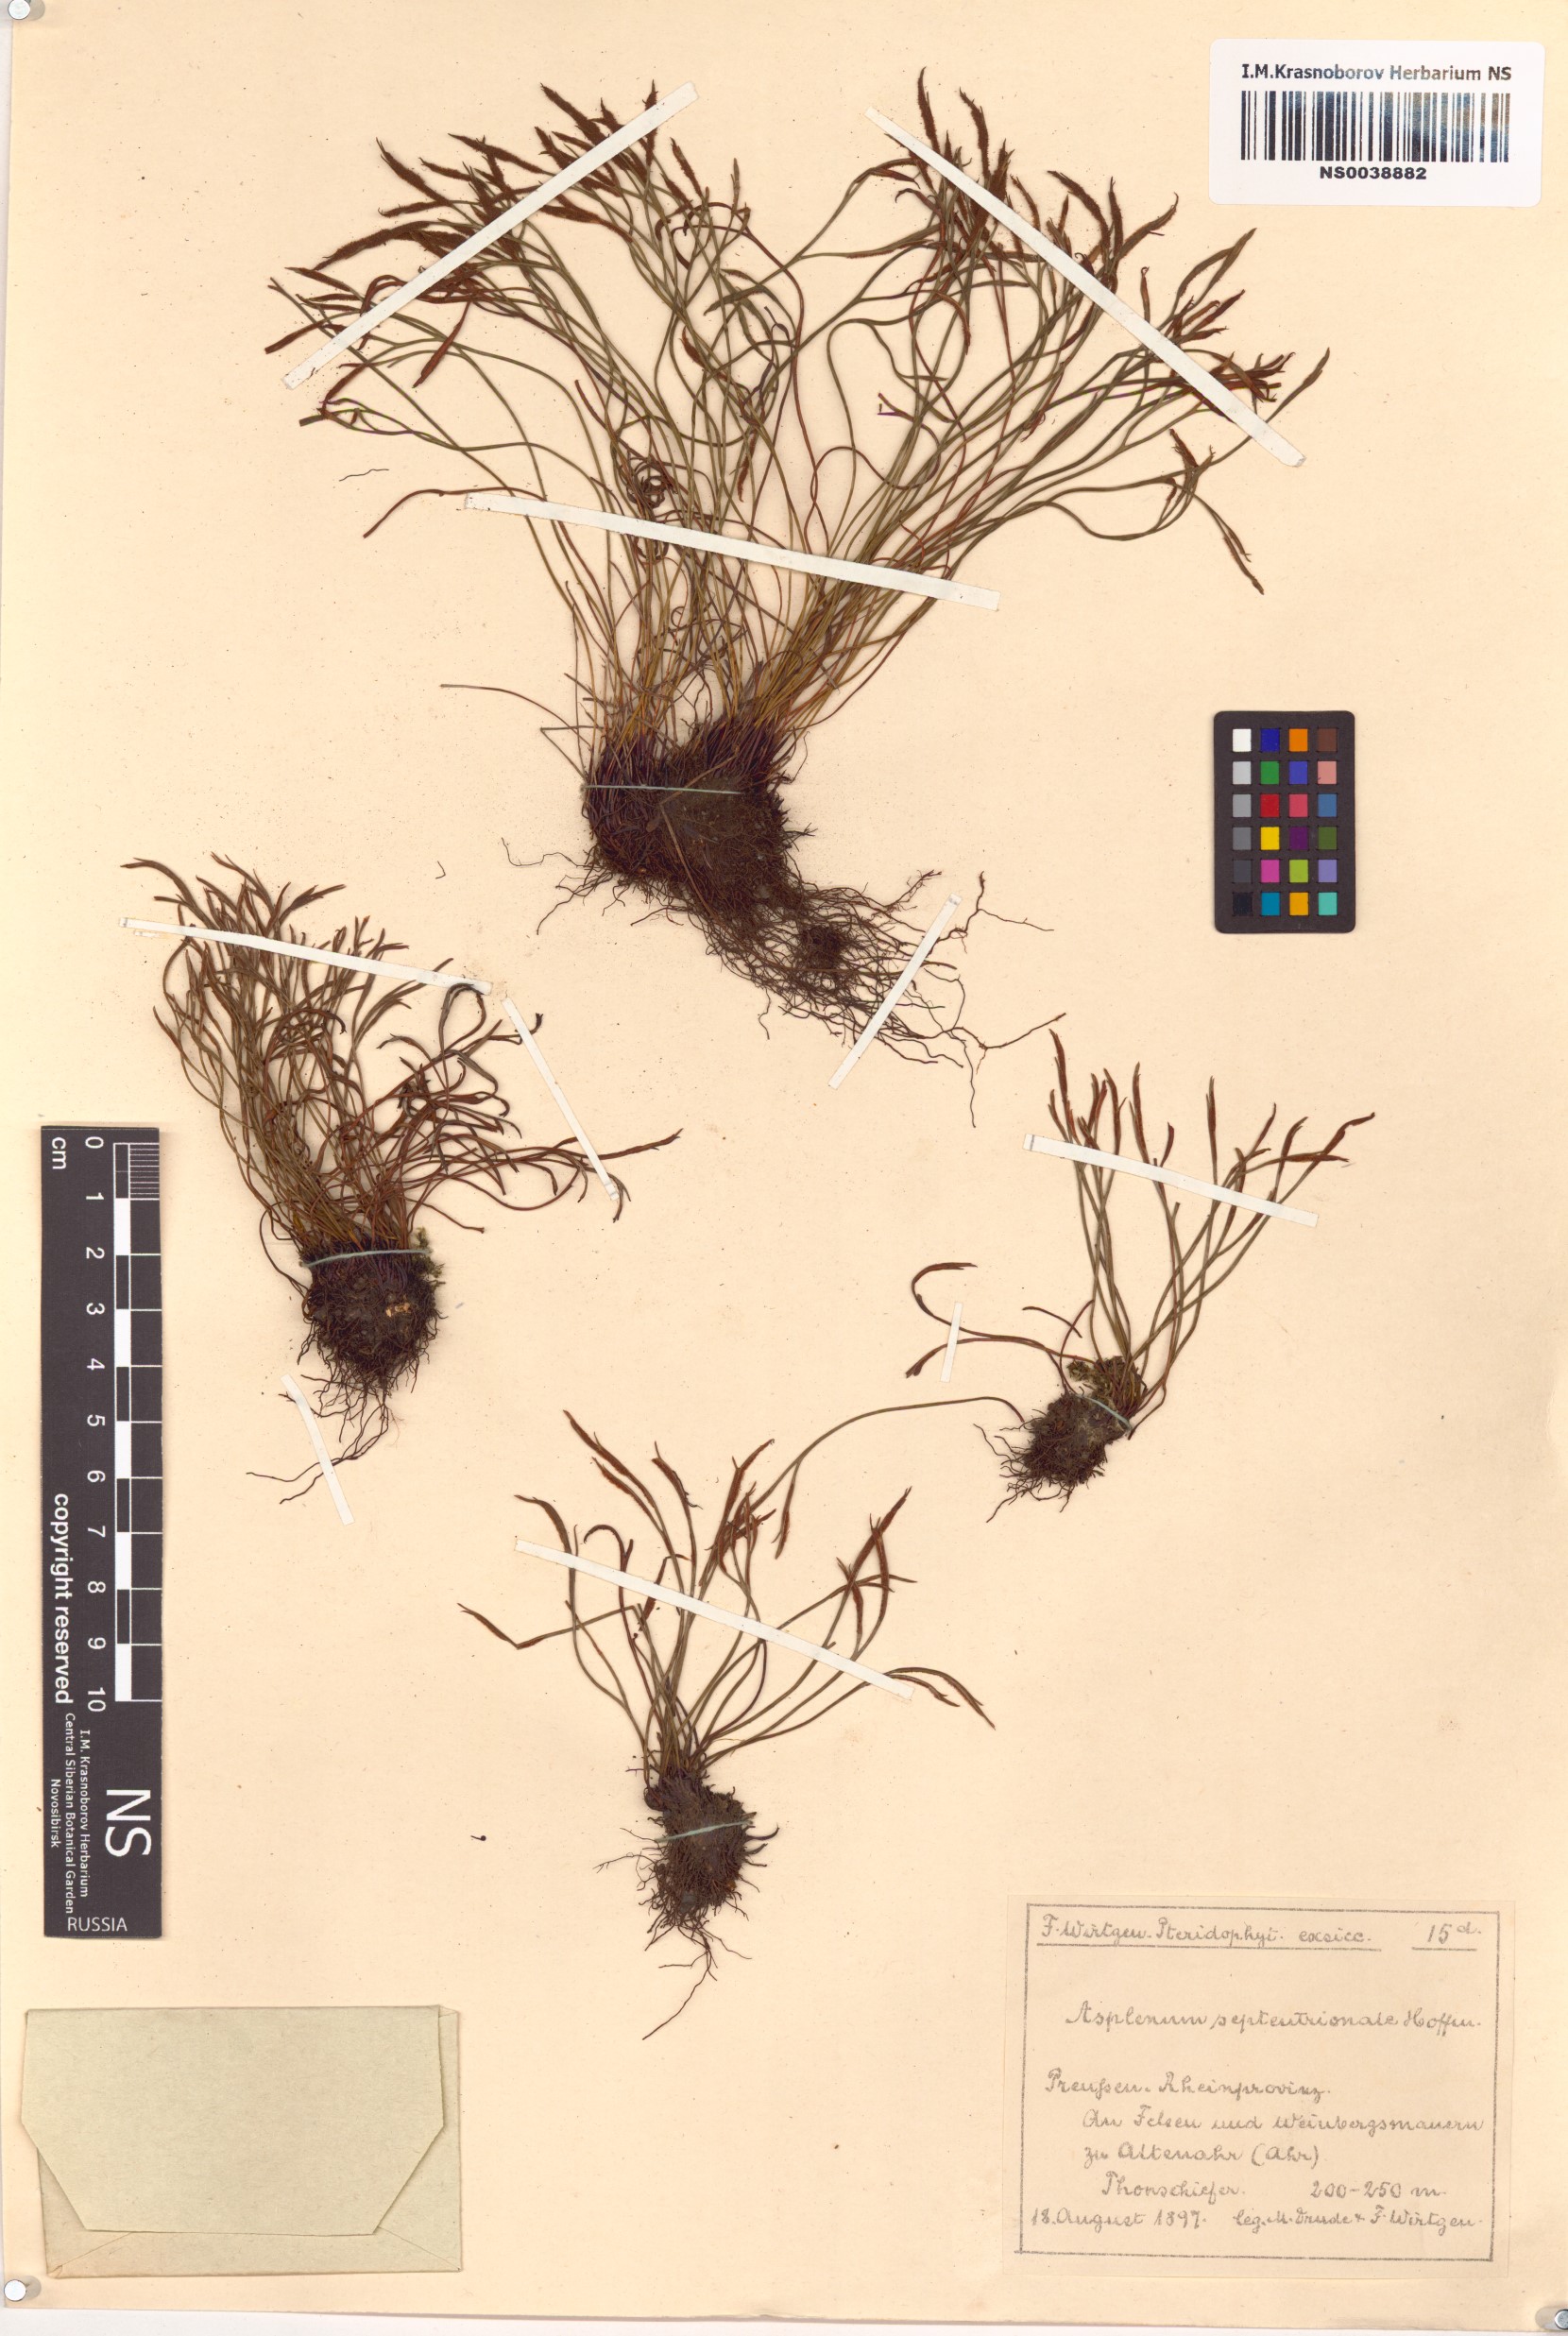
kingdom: Plantae
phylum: Tracheophyta
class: Polypodiopsida
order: Polypodiales
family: Aspleniaceae
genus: Asplenium
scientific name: Asplenium septentrionale
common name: Forked spleenwort
